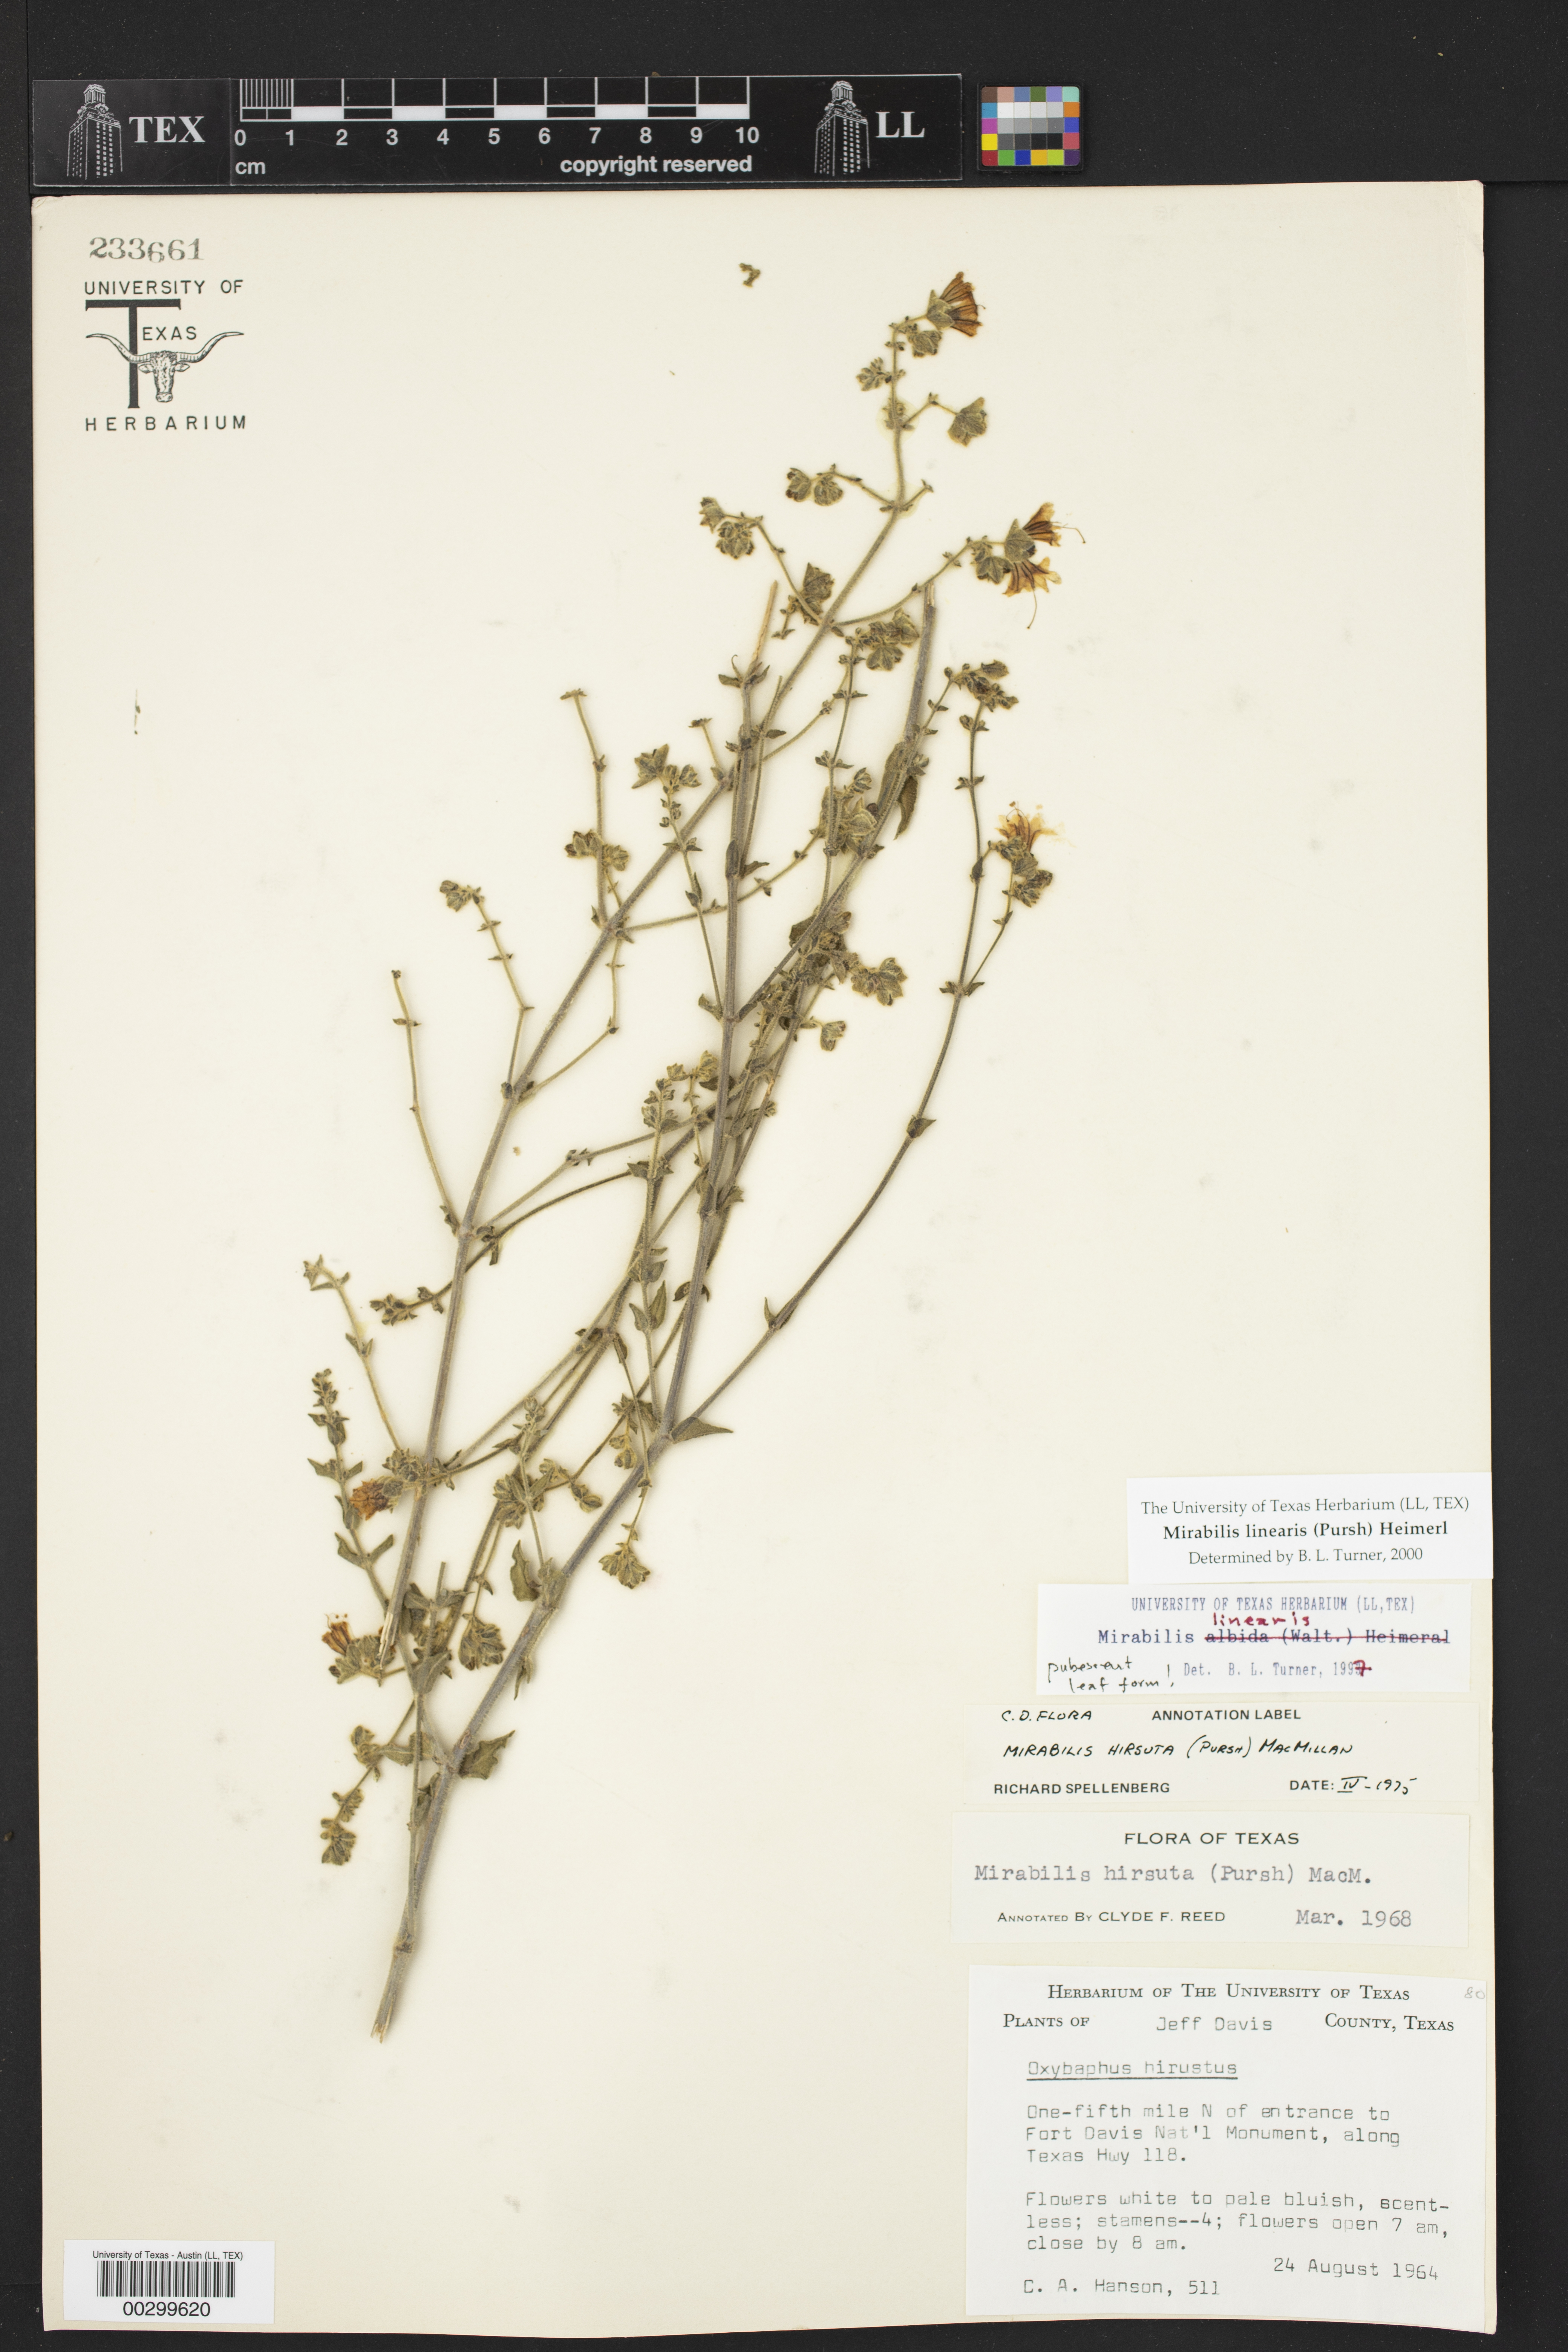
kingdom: Plantae
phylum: Tracheophyta
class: Magnoliopsida
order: Caryophyllales
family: Nyctaginaceae
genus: Mirabilis
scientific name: Mirabilis linearis
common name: Linear-leaved four-o'clock
